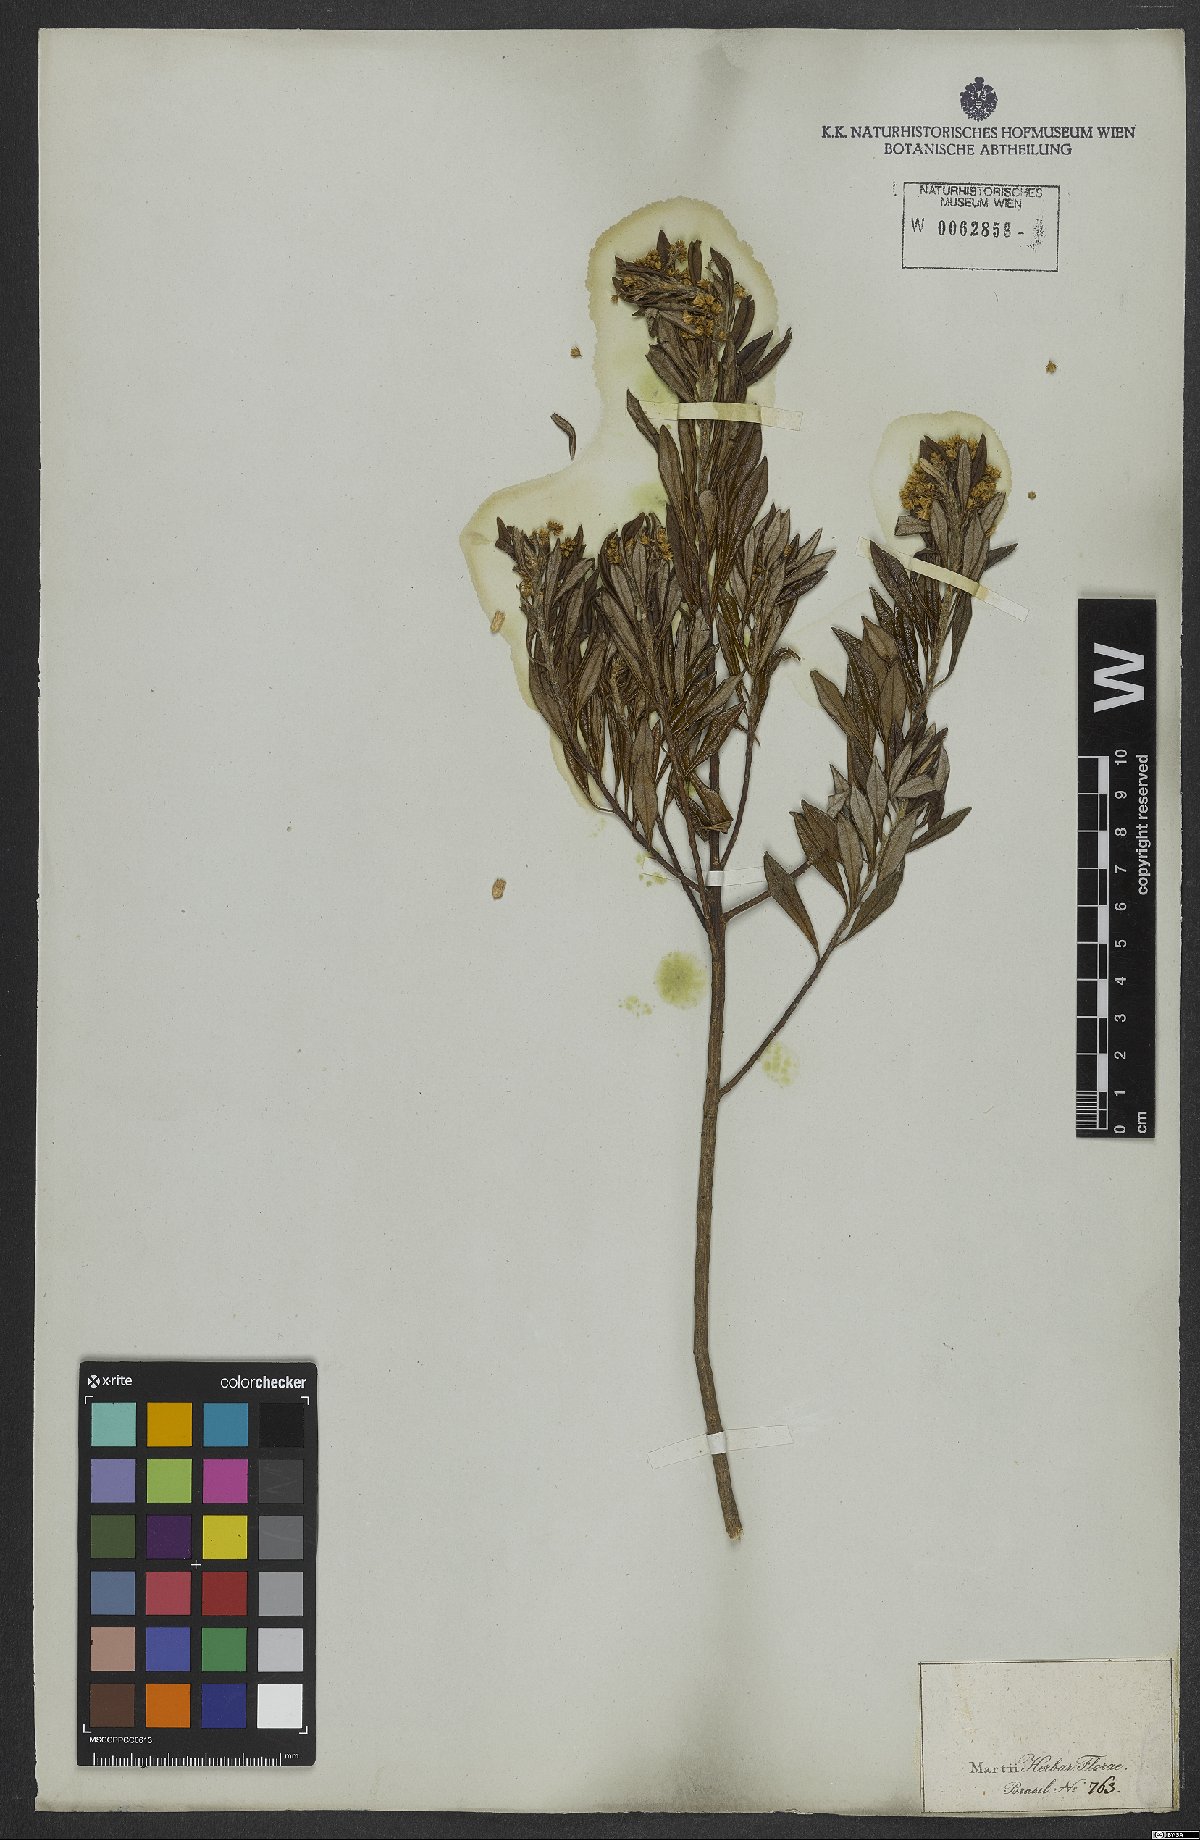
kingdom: Plantae
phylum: Tracheophyta
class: Magnoliopsida
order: Asterales
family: Asteraceae
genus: Baccharis
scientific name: Baccharis
